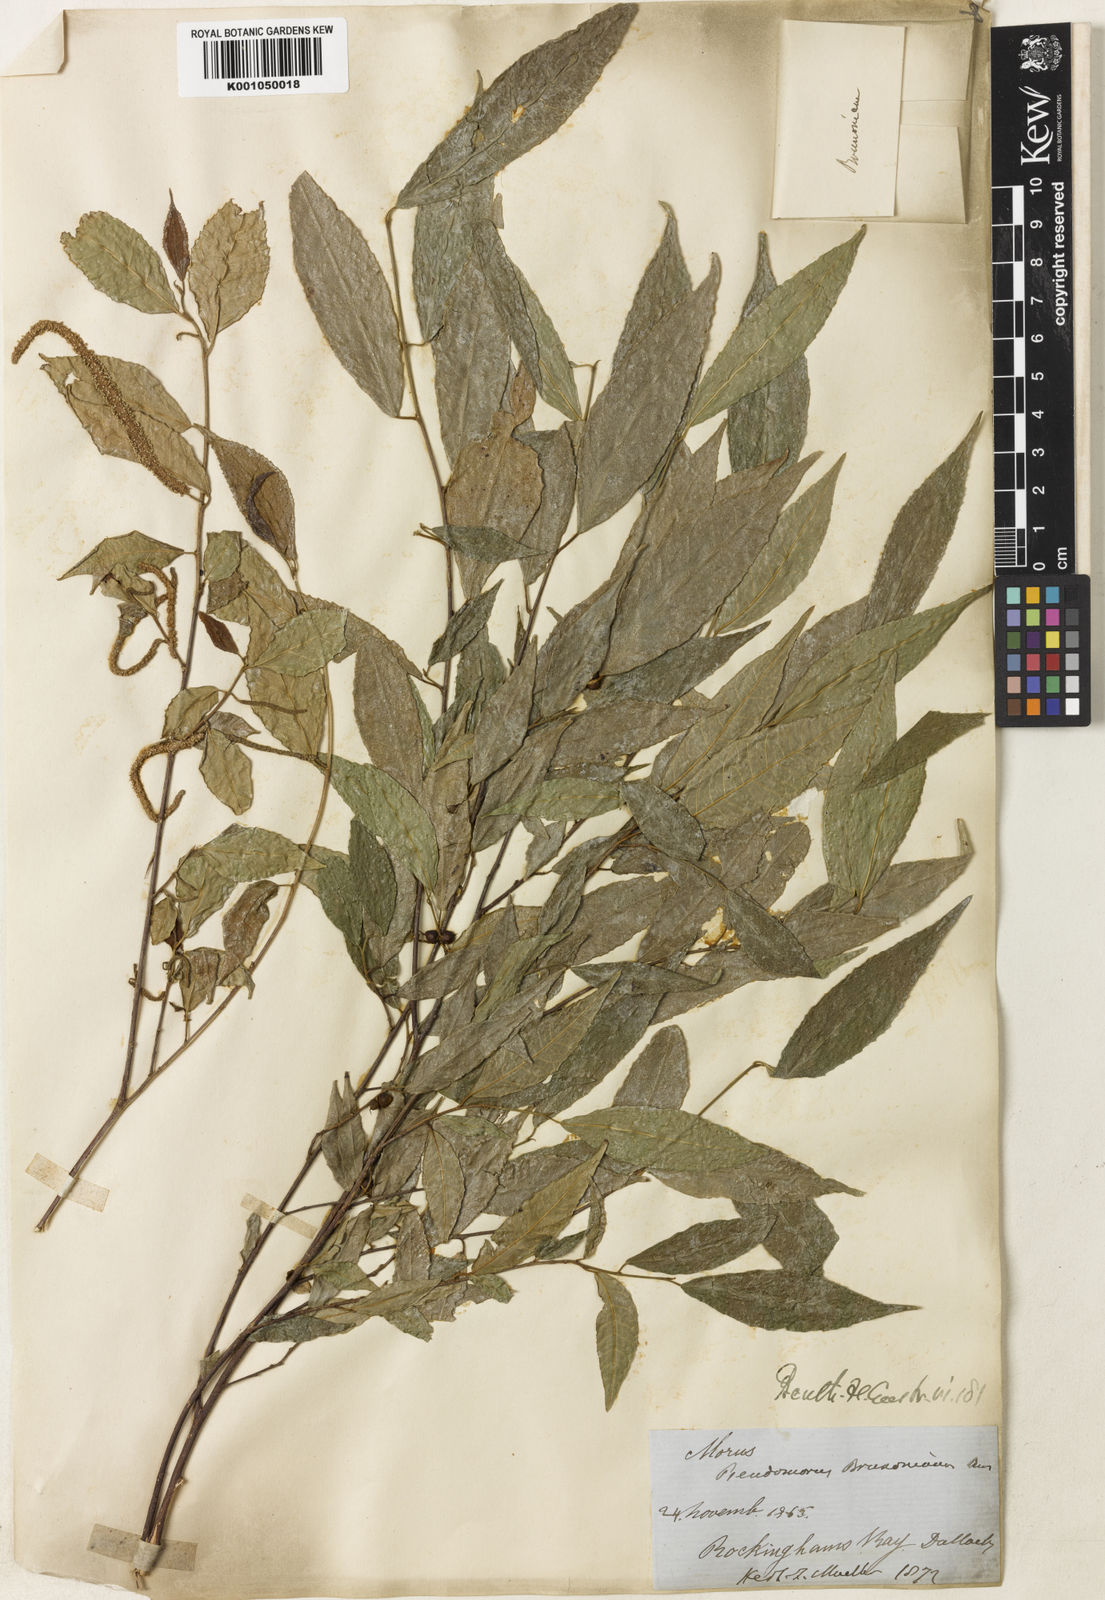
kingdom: Plantae
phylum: Tracheophyta
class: Magnoliopsida
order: Rosales
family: Moraceae
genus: Paratrophis
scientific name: Paratrophis pendulina
